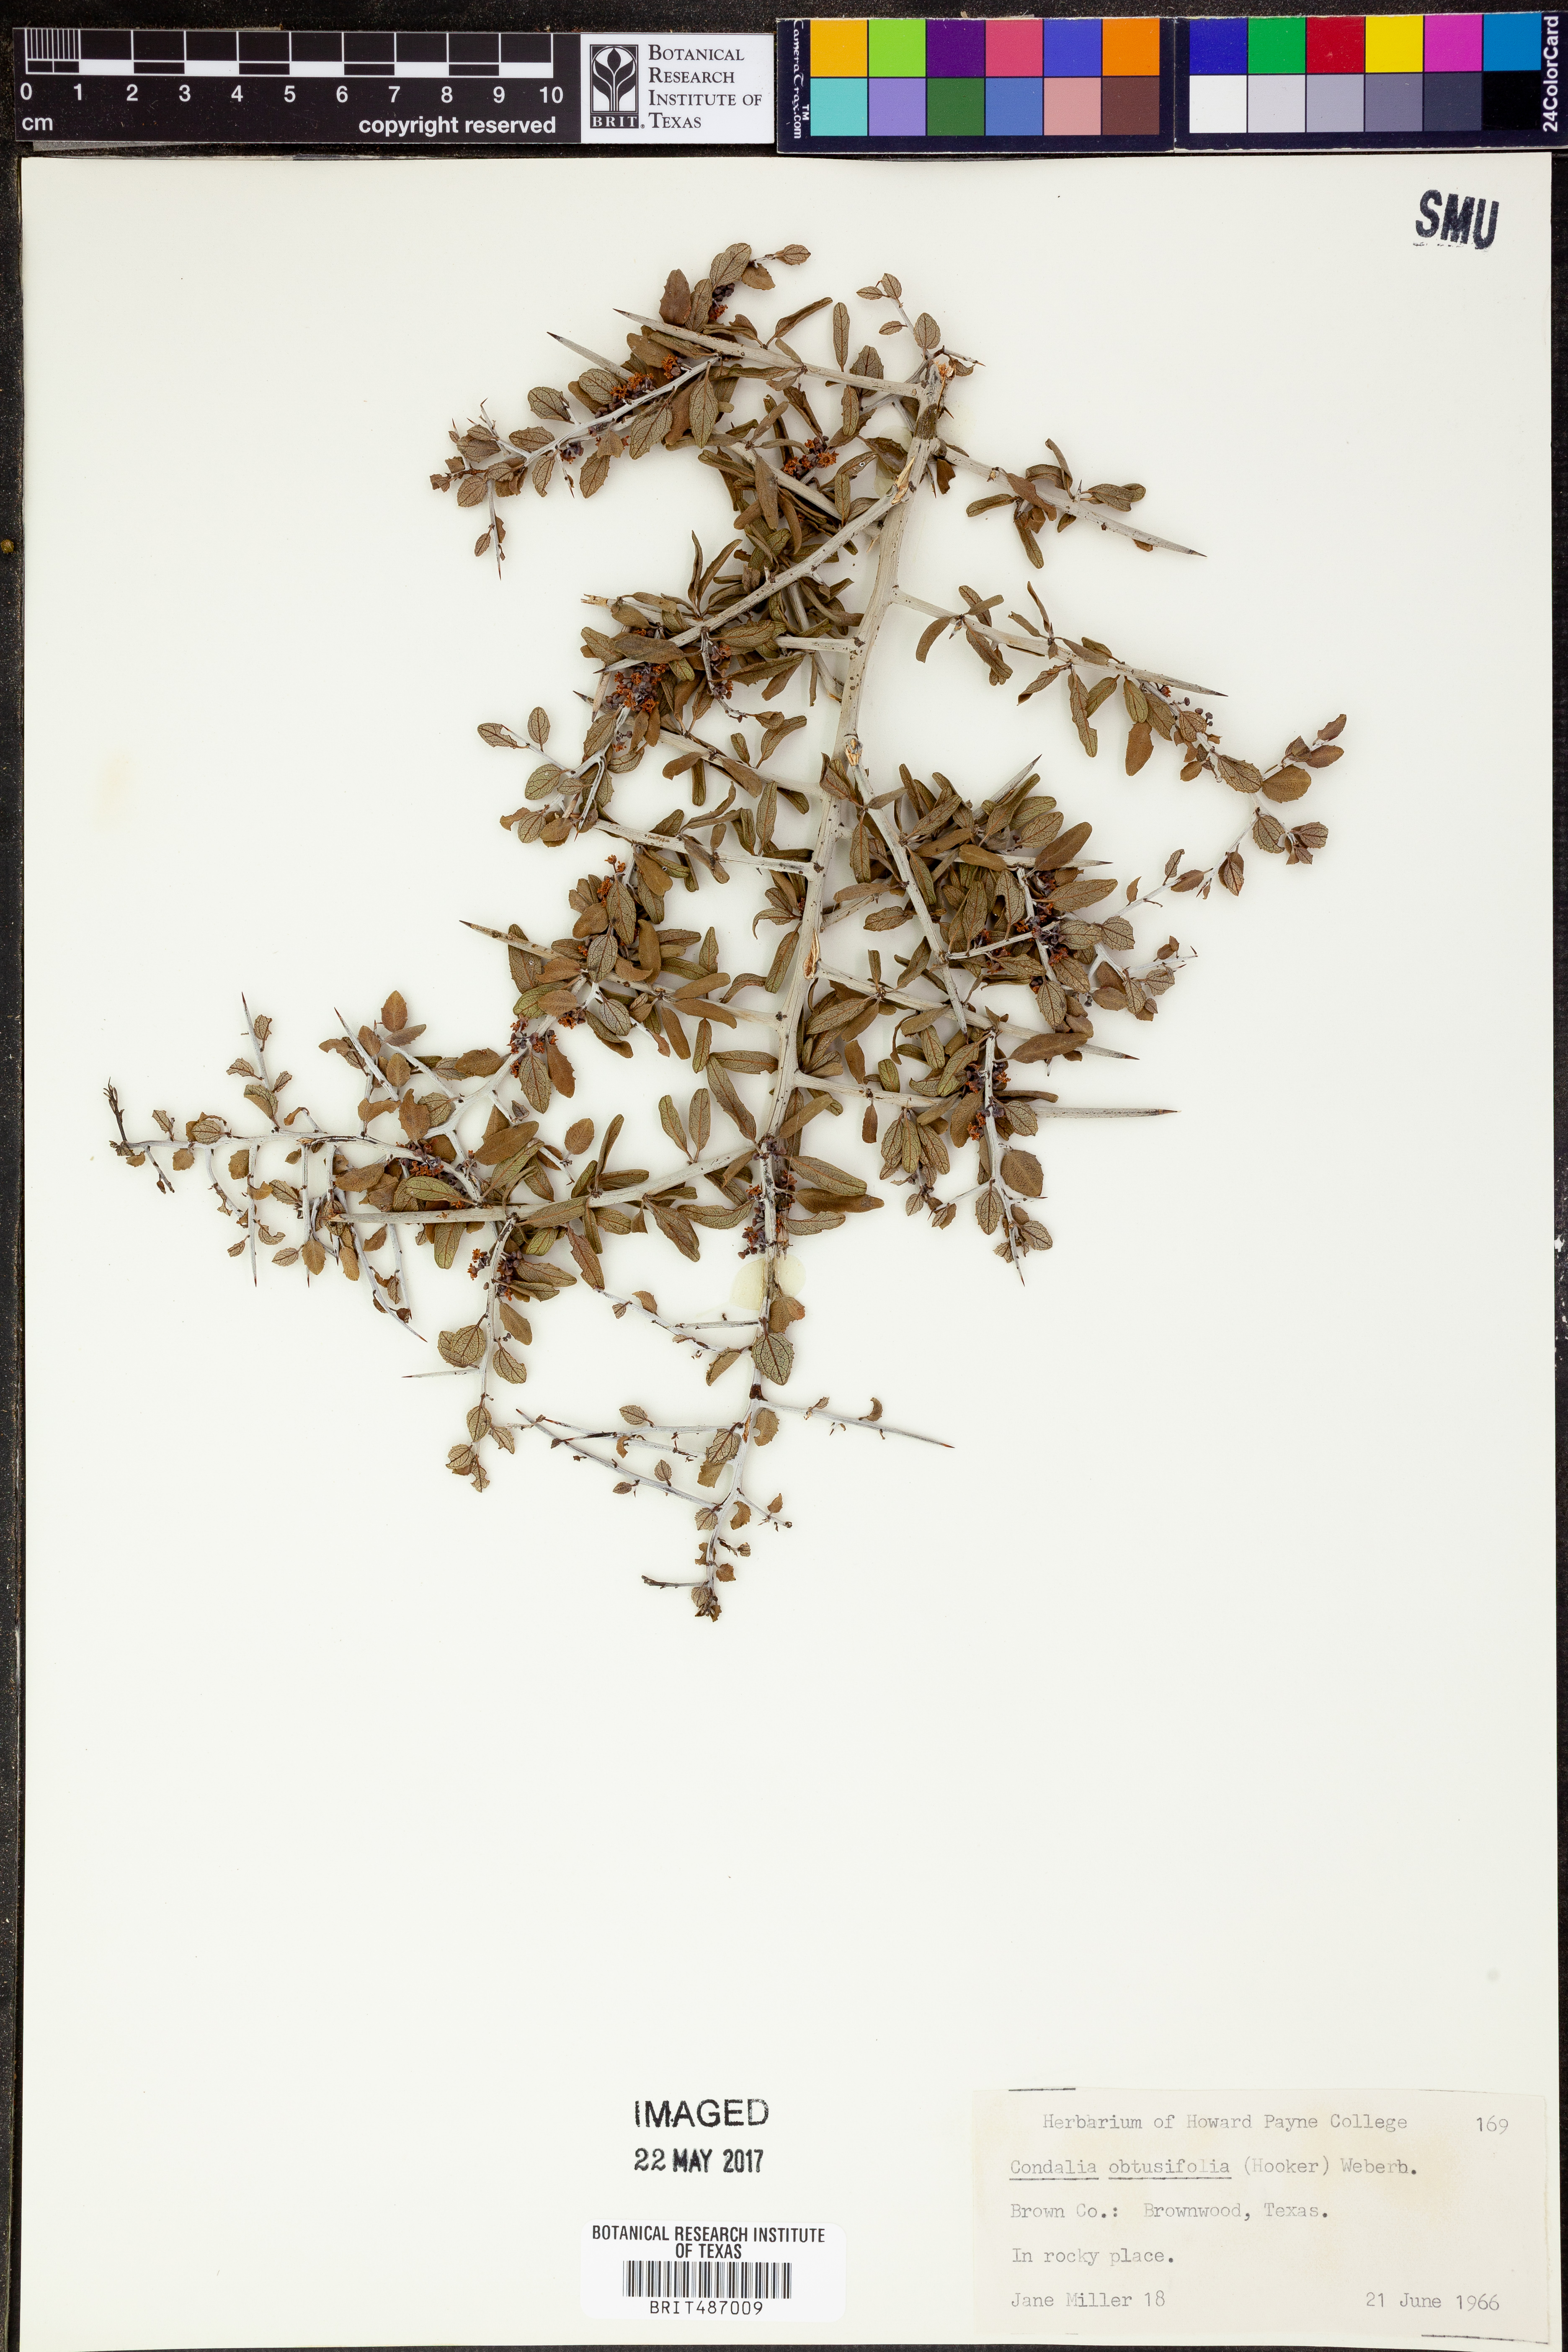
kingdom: Plantae
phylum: Tracheophyta
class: Magnoliopsida
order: Rosales
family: Rhamnaceae
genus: Sarcomphalus
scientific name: Sarcomphalus obtusifolius
